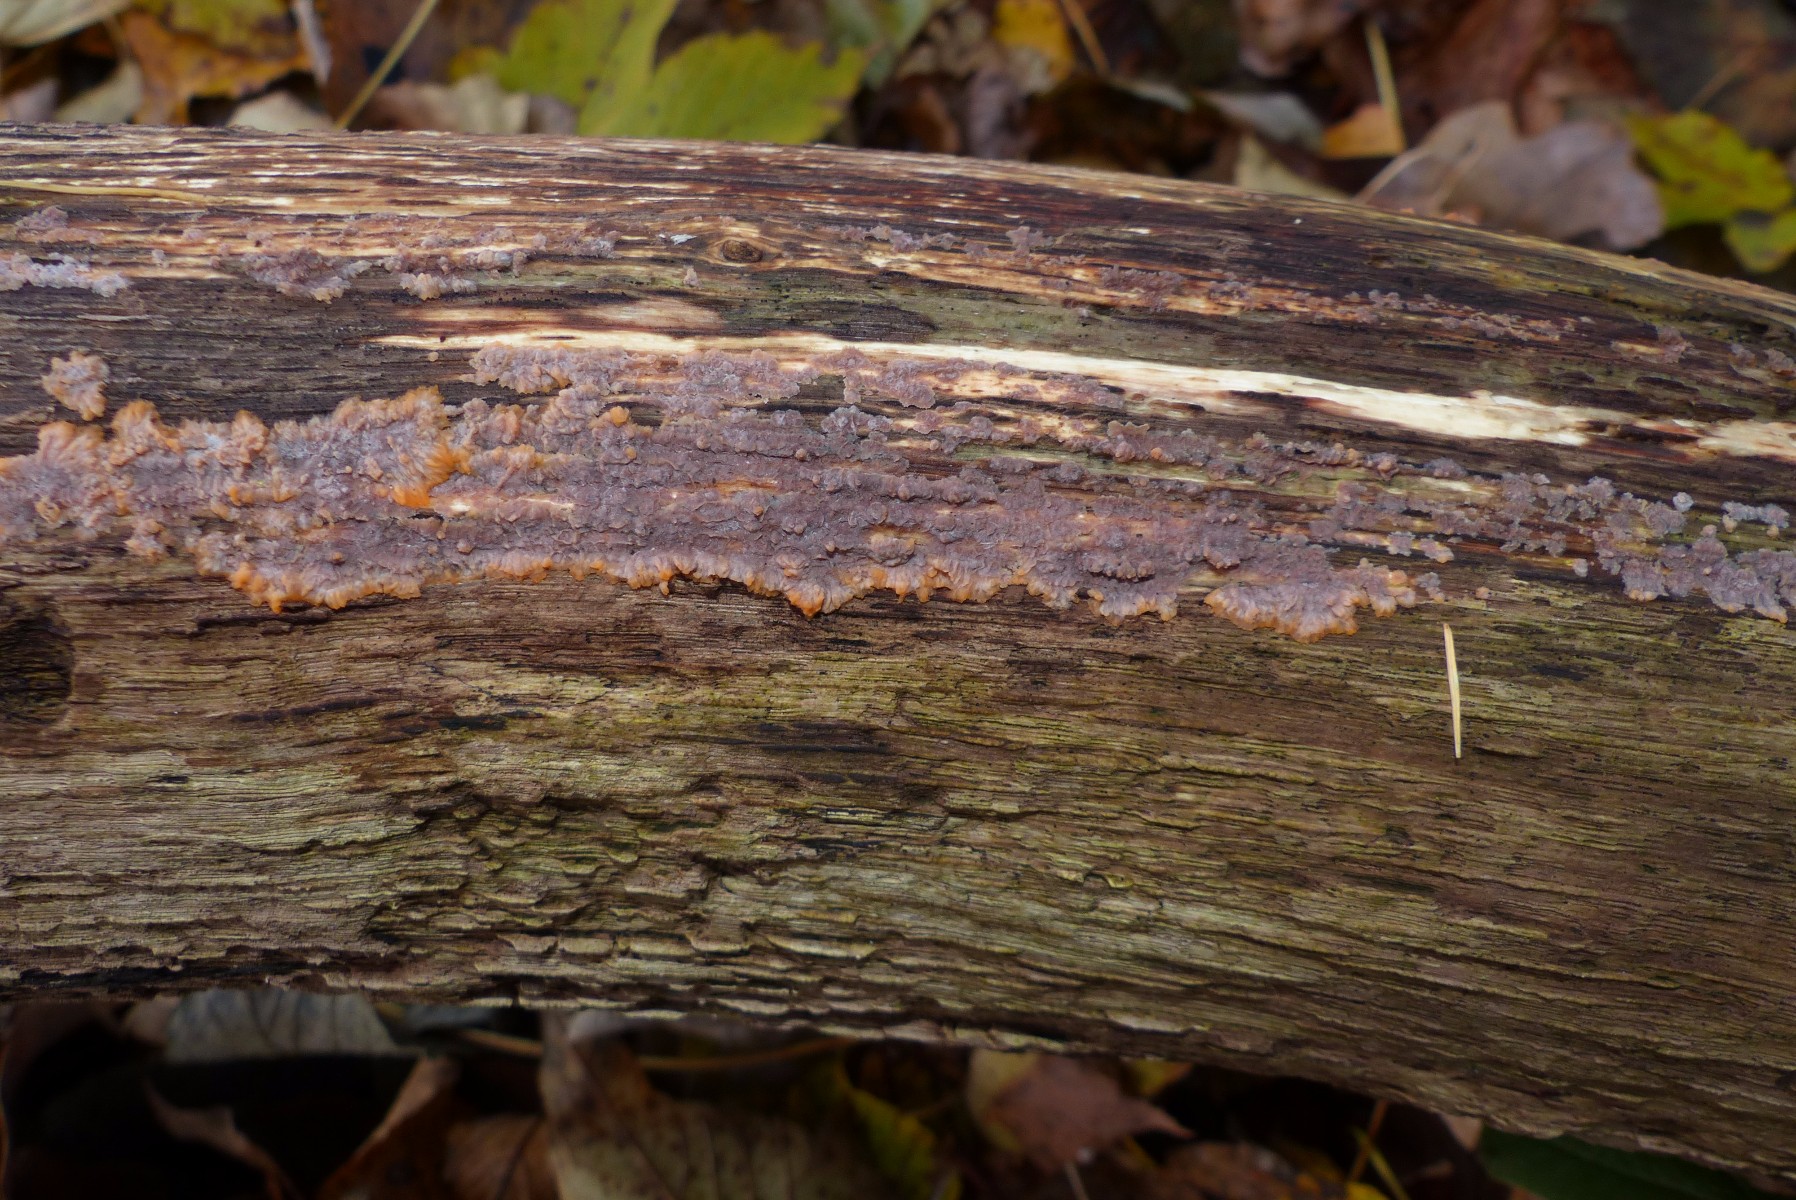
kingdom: Fungi
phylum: Basidiomycota
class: Agaricomycetes
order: Polyporales
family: Meruliaceae
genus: Phlebia
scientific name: Phlebia radiata
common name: stråle-åresvamp
